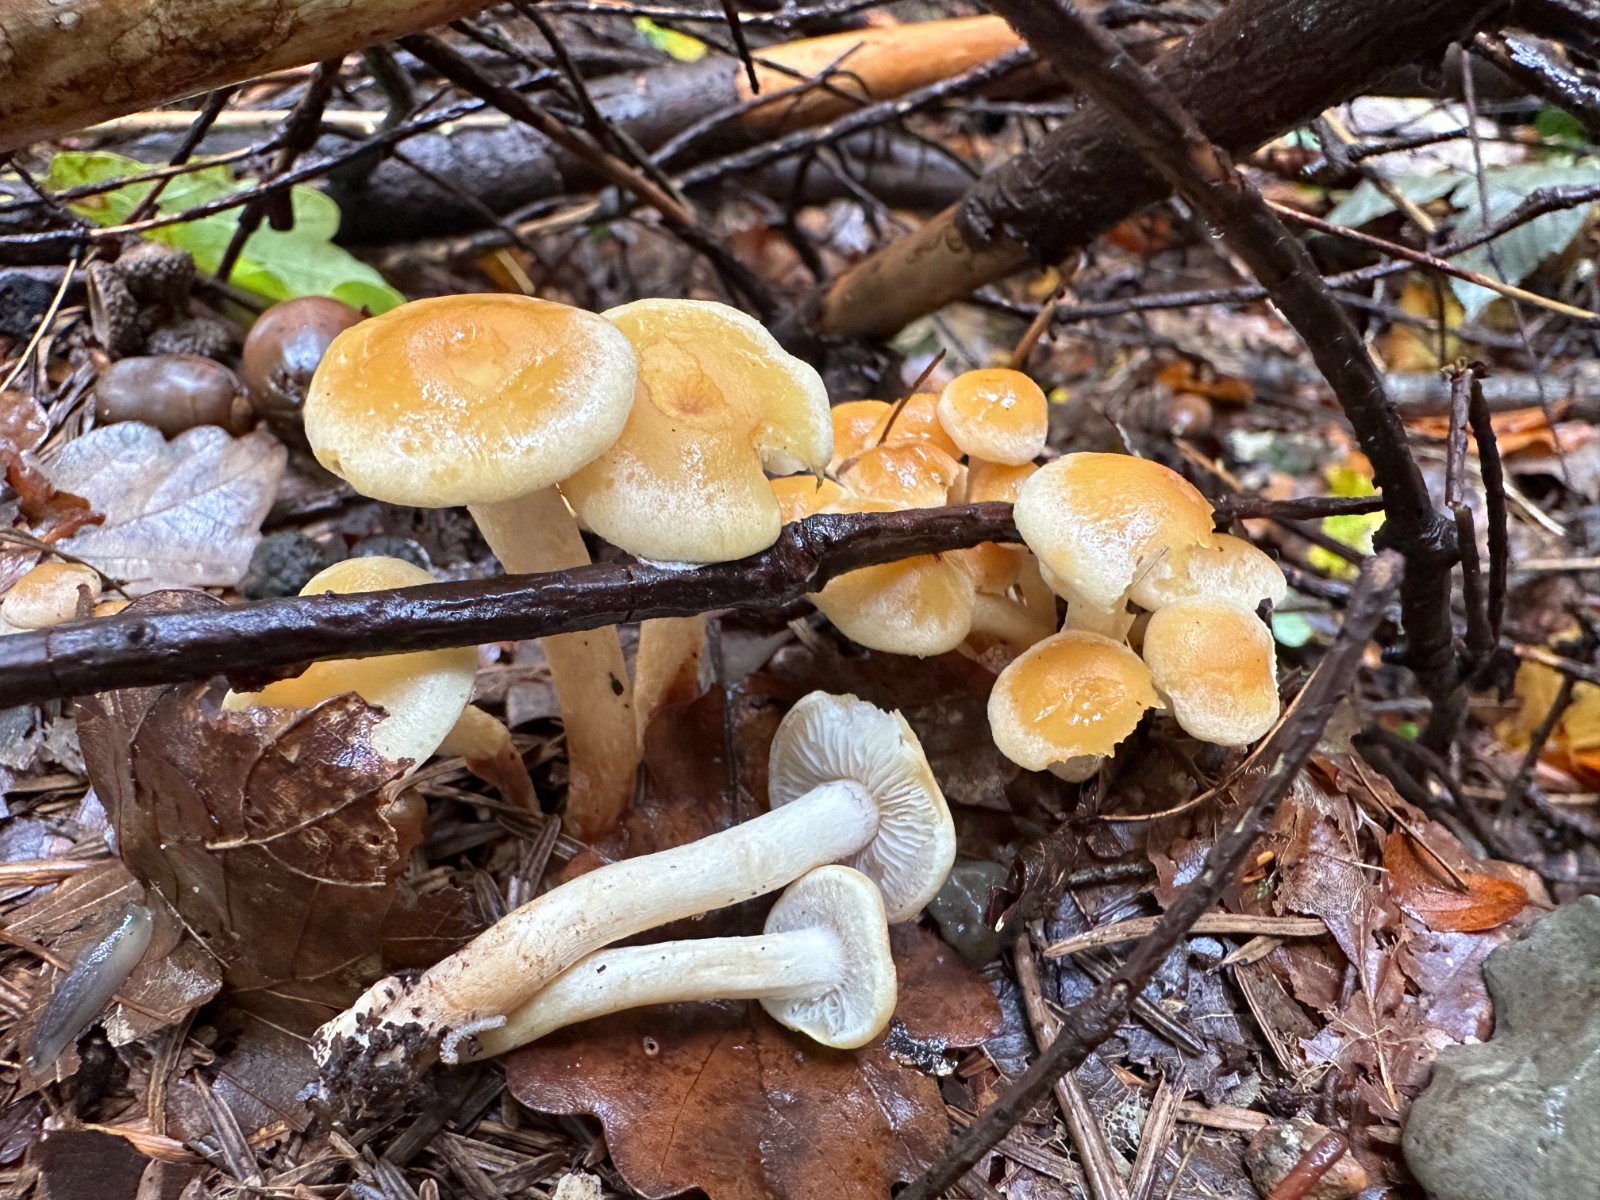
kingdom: Fungi
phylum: Basidiomycota
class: Agaricomycetes
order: Agaricales
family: Strophariaceae
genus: Hypholoma
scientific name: Hypholoma capnoides
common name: gran-svovlhat
